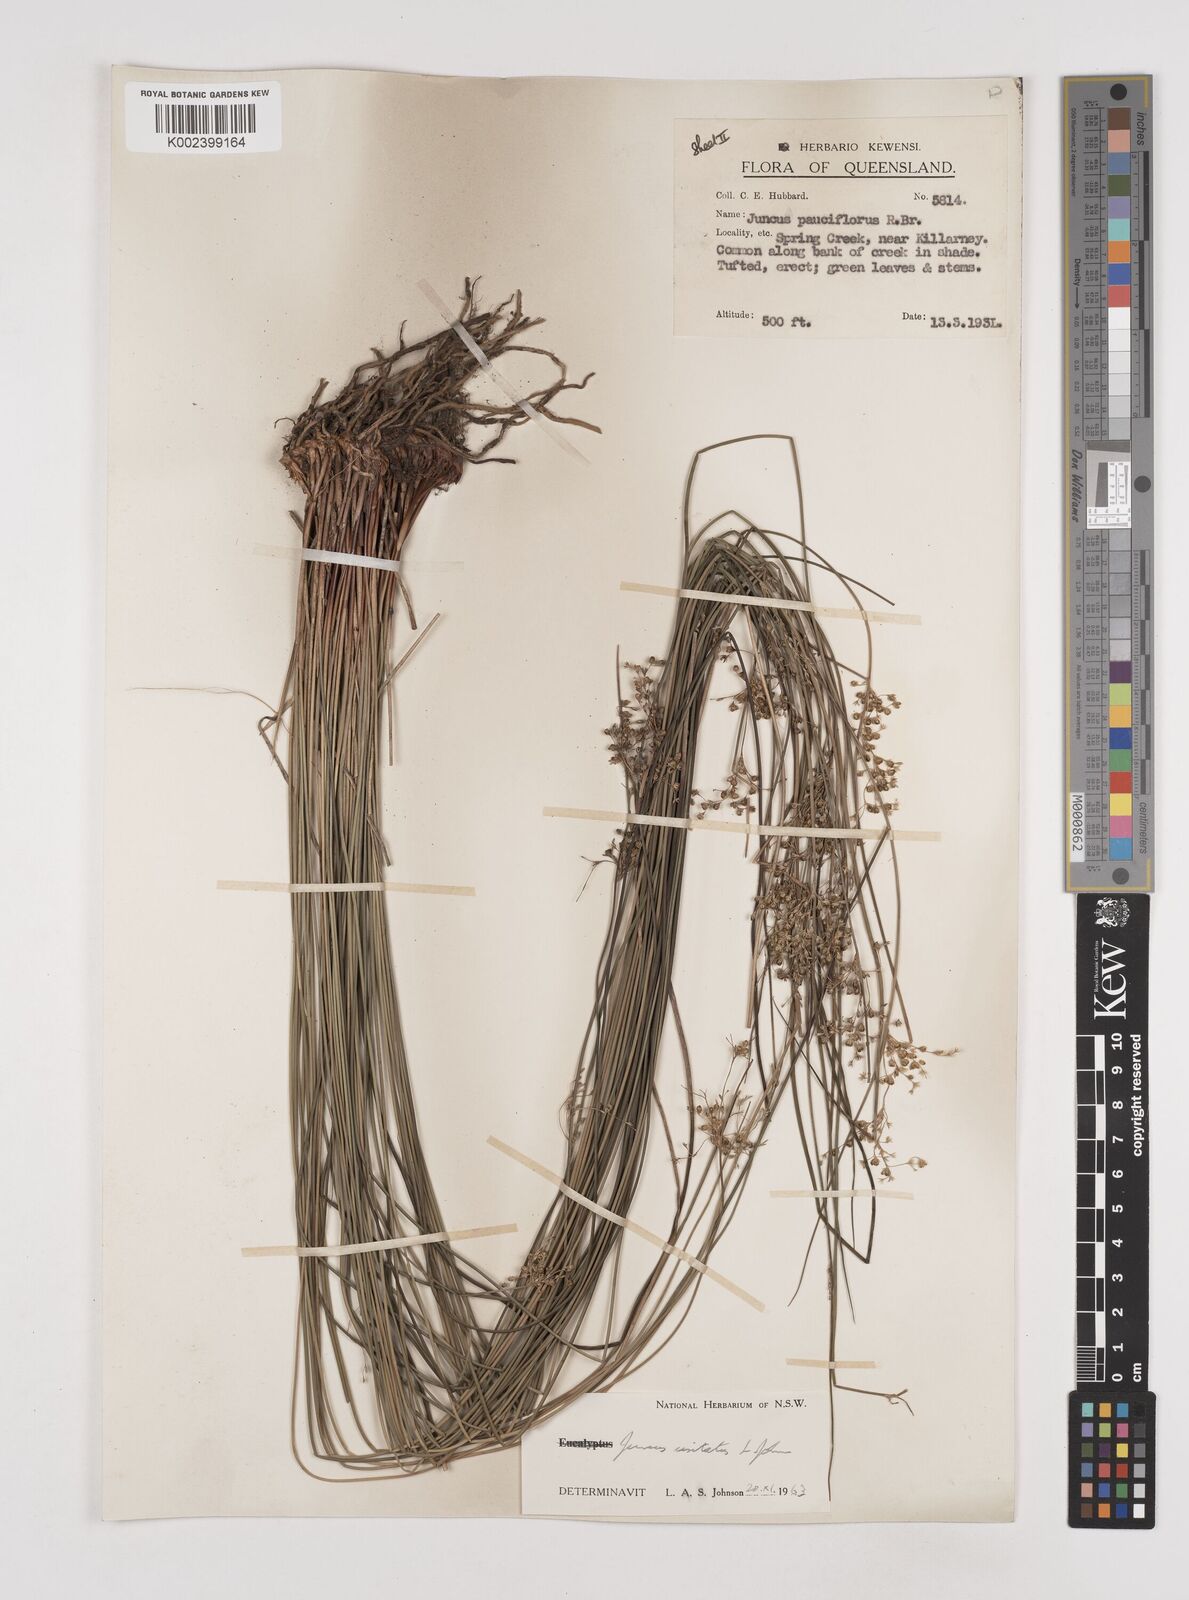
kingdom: Plantae
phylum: Tracheophyta
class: Liliopsida
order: Poales
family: Juncaceae
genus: Juncus
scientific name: Juncus usitatus
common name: Rush
